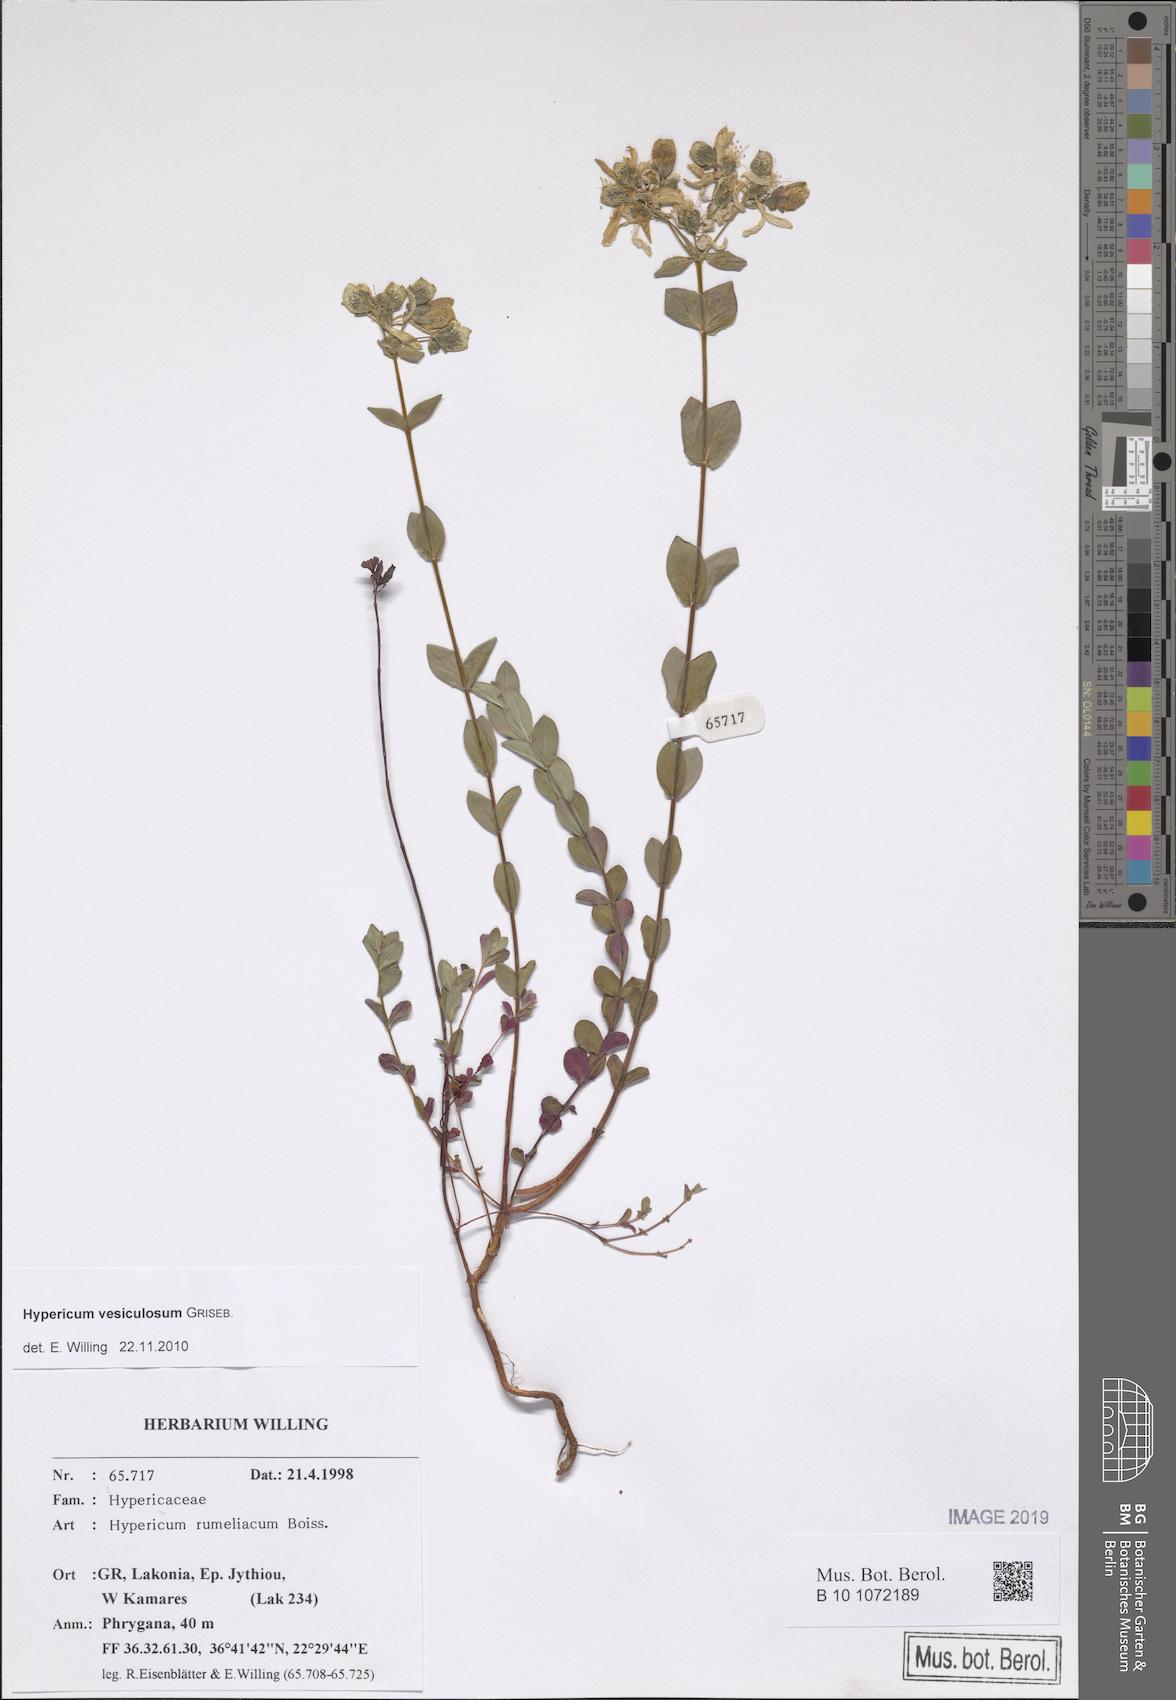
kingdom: Plantae
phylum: Tracheophyta
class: Magnoliopsida
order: Malpighiales
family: Hypericaceae
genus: Hypericum
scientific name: Hypericum perfoliatum
